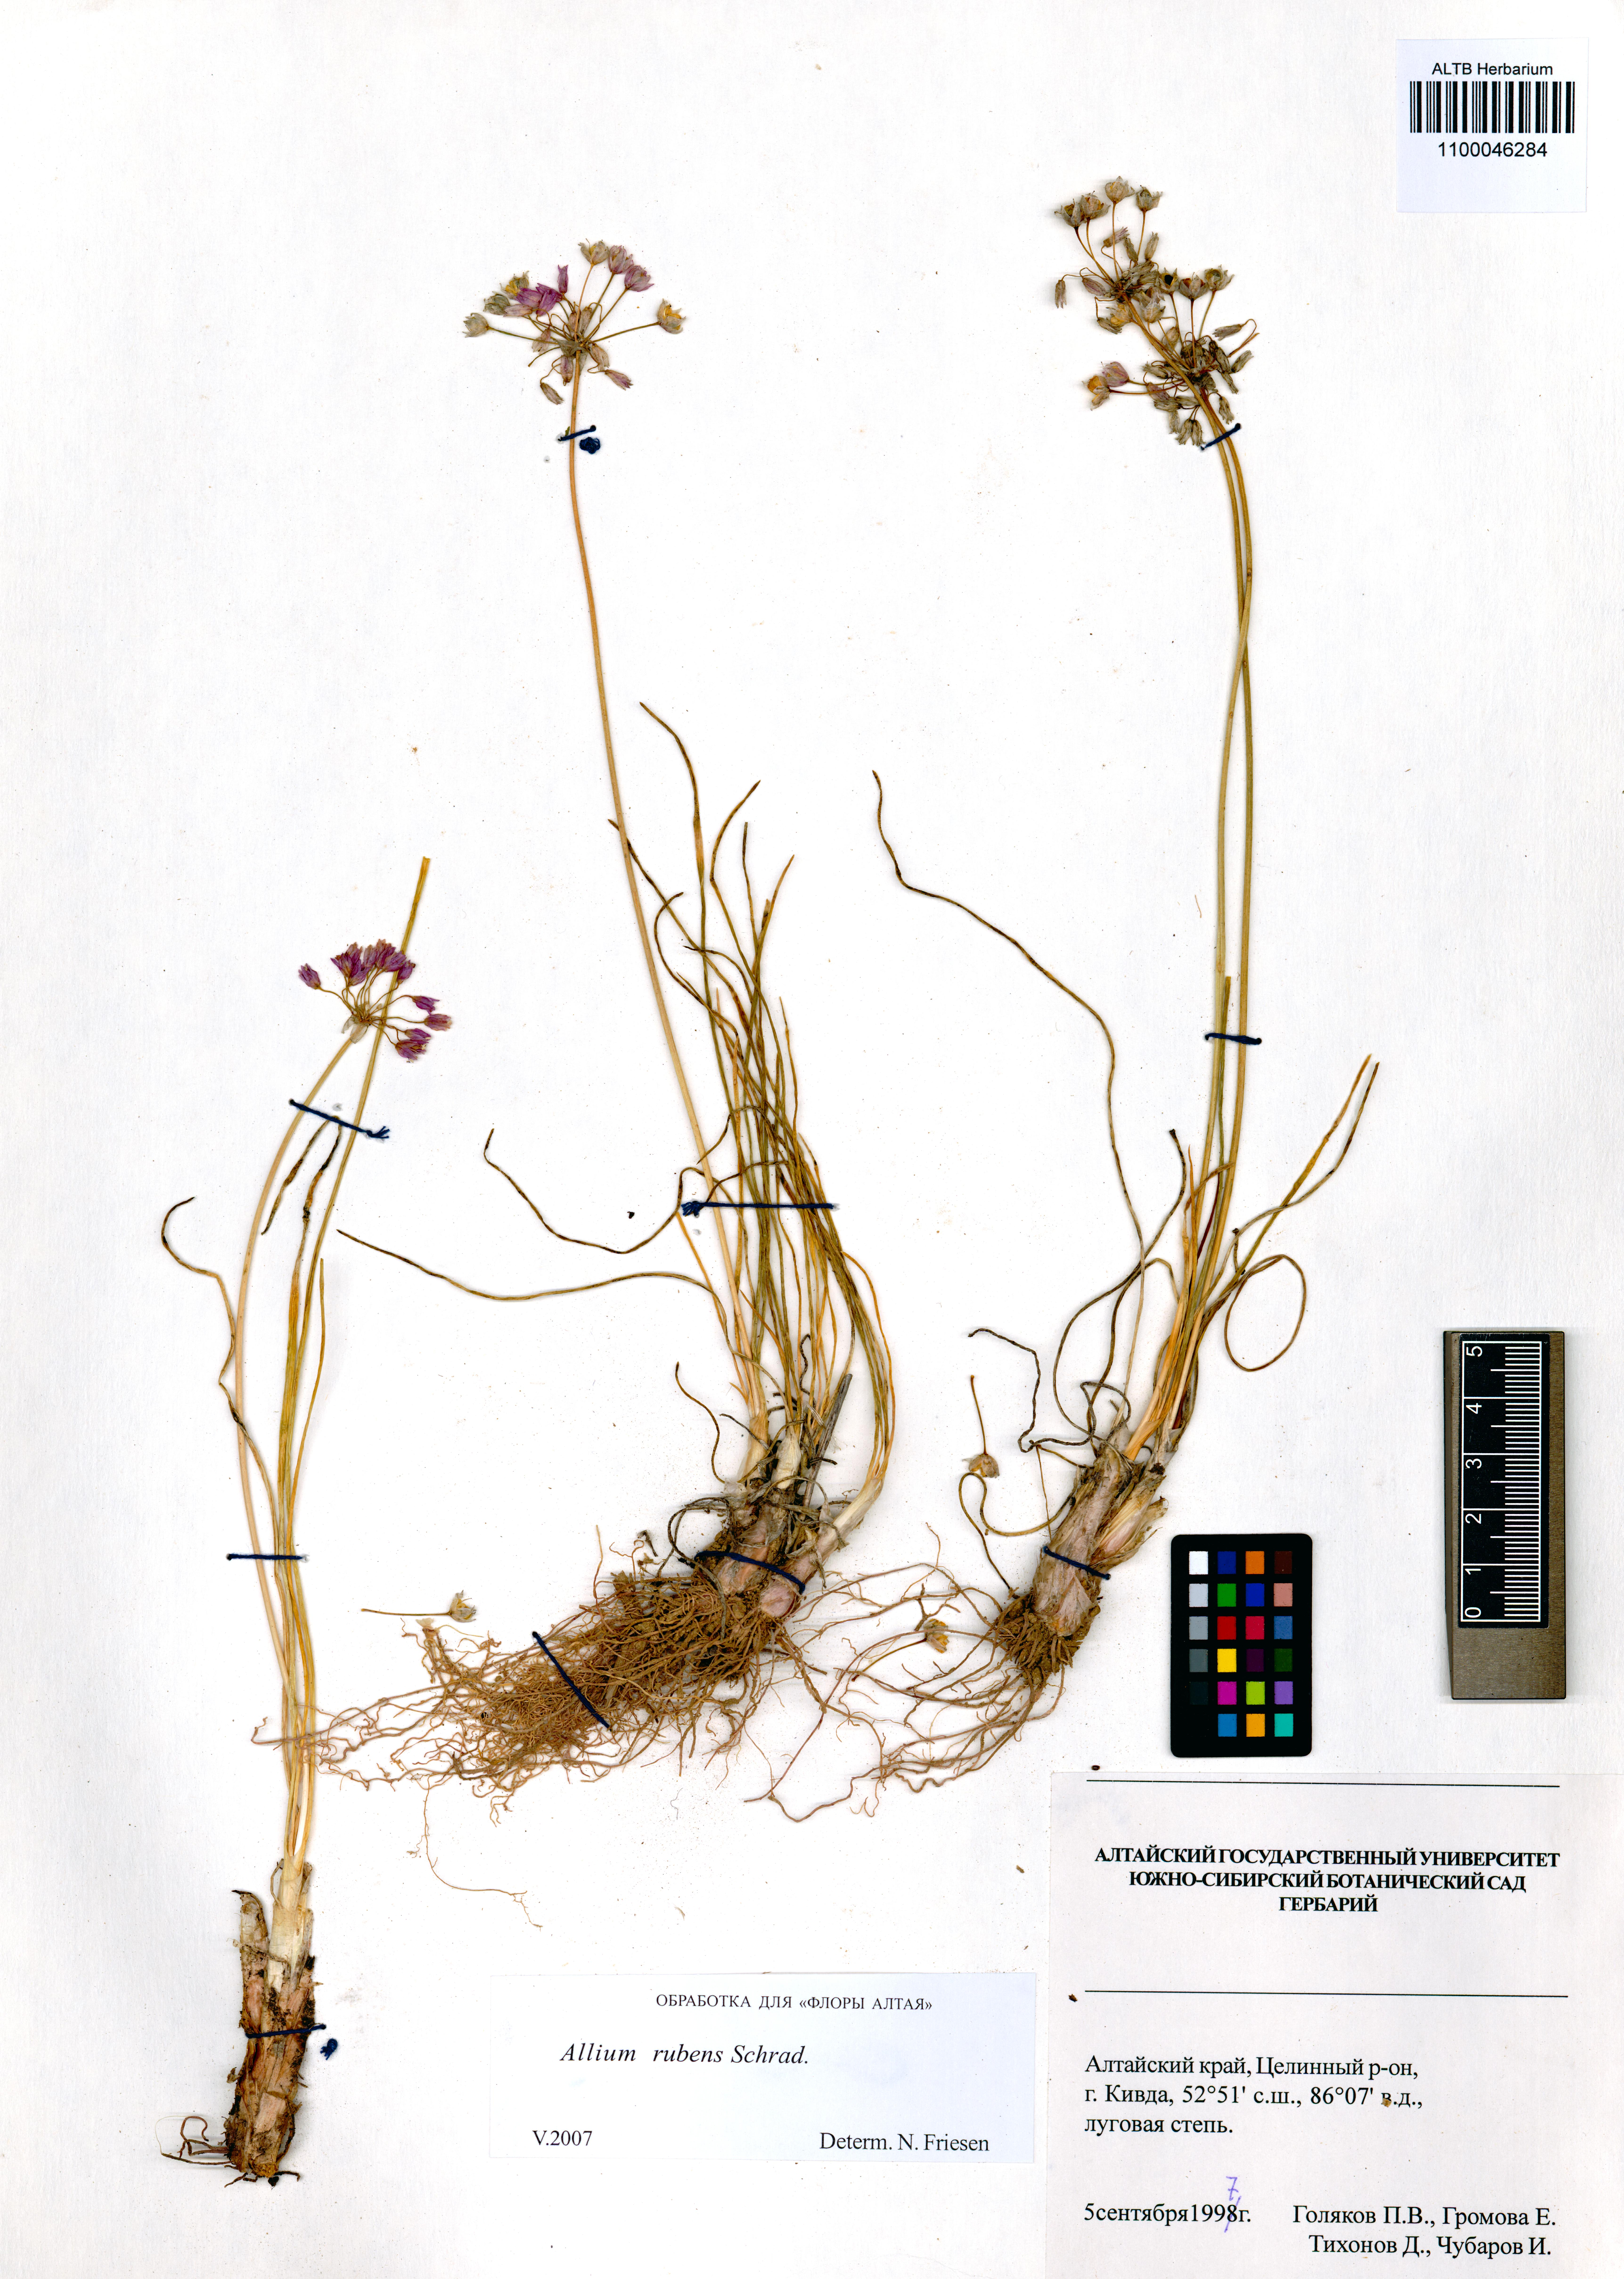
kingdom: Plantae
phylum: Tracheophyta
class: Liliopsida
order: Asparagales
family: Amaryllidaceae
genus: Allium
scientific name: Allium rubens
